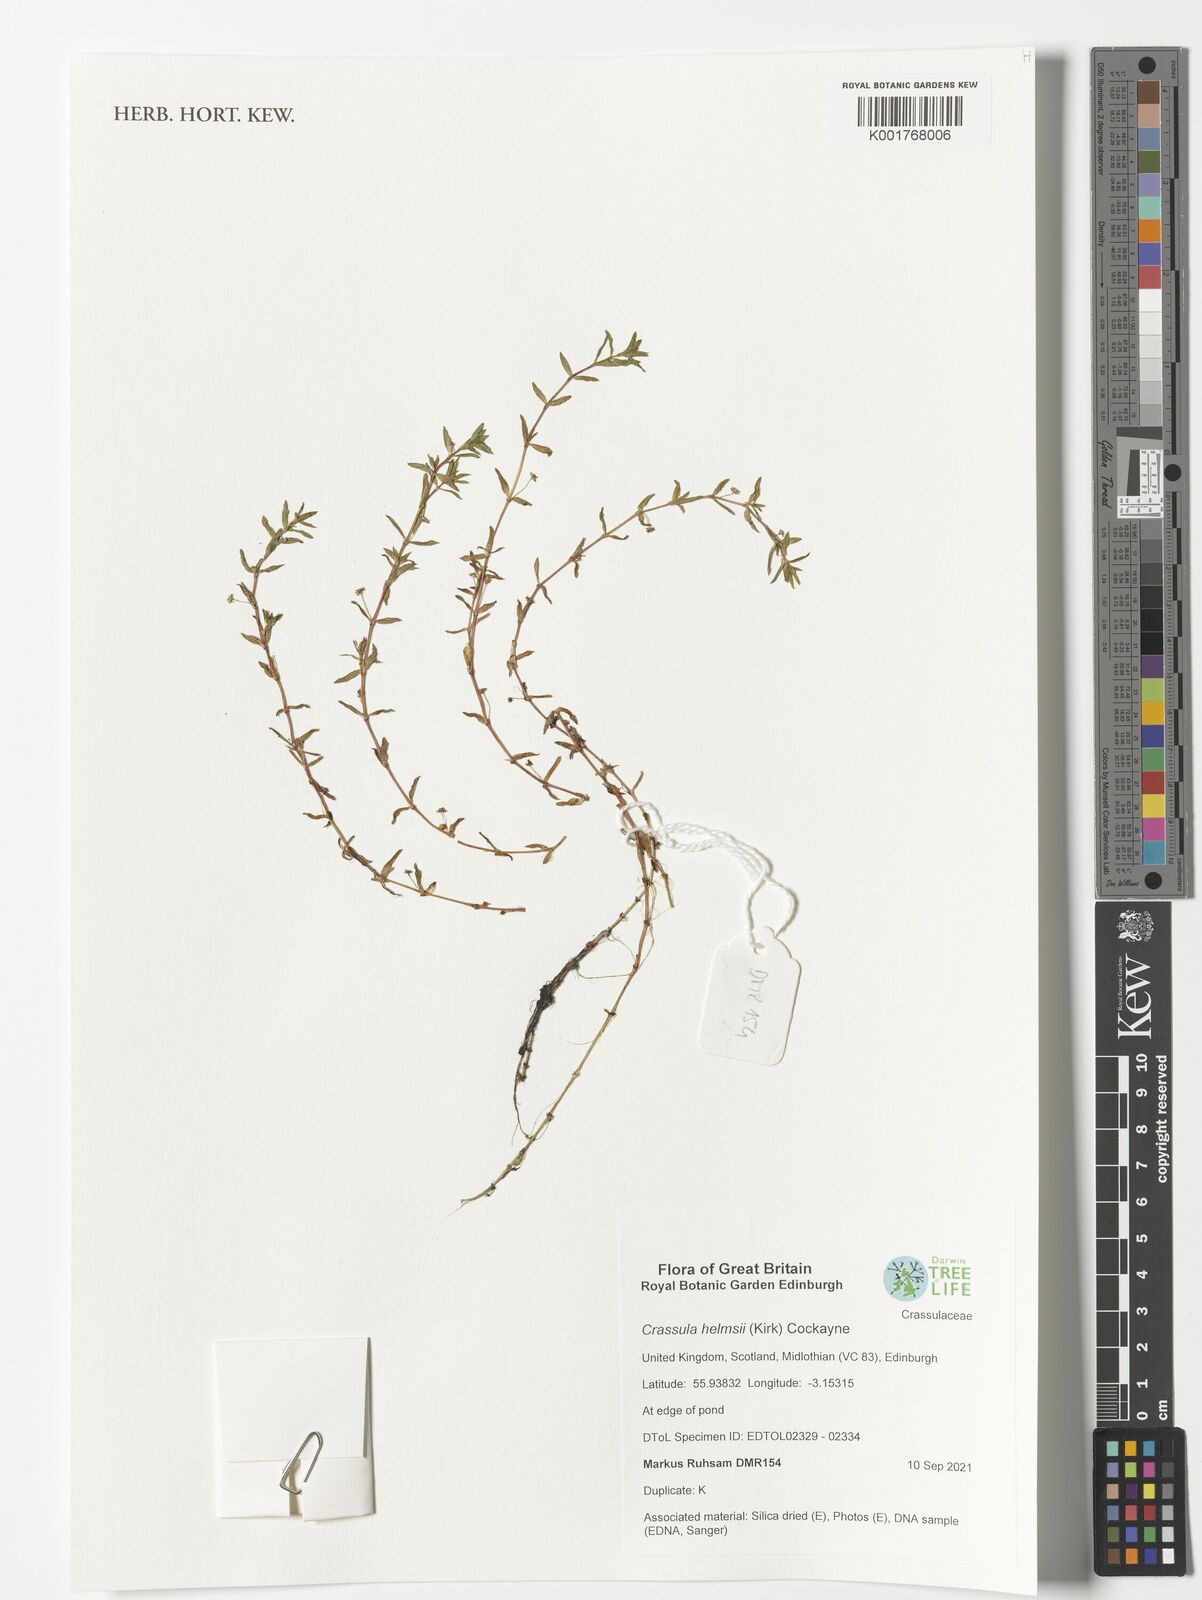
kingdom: Plantae
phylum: Tracheophyta
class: Magnoliopsida
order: Saxifragales
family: Crassulaceae
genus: Crassula
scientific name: Crassula helmsii
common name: New zealand pigmyweed
